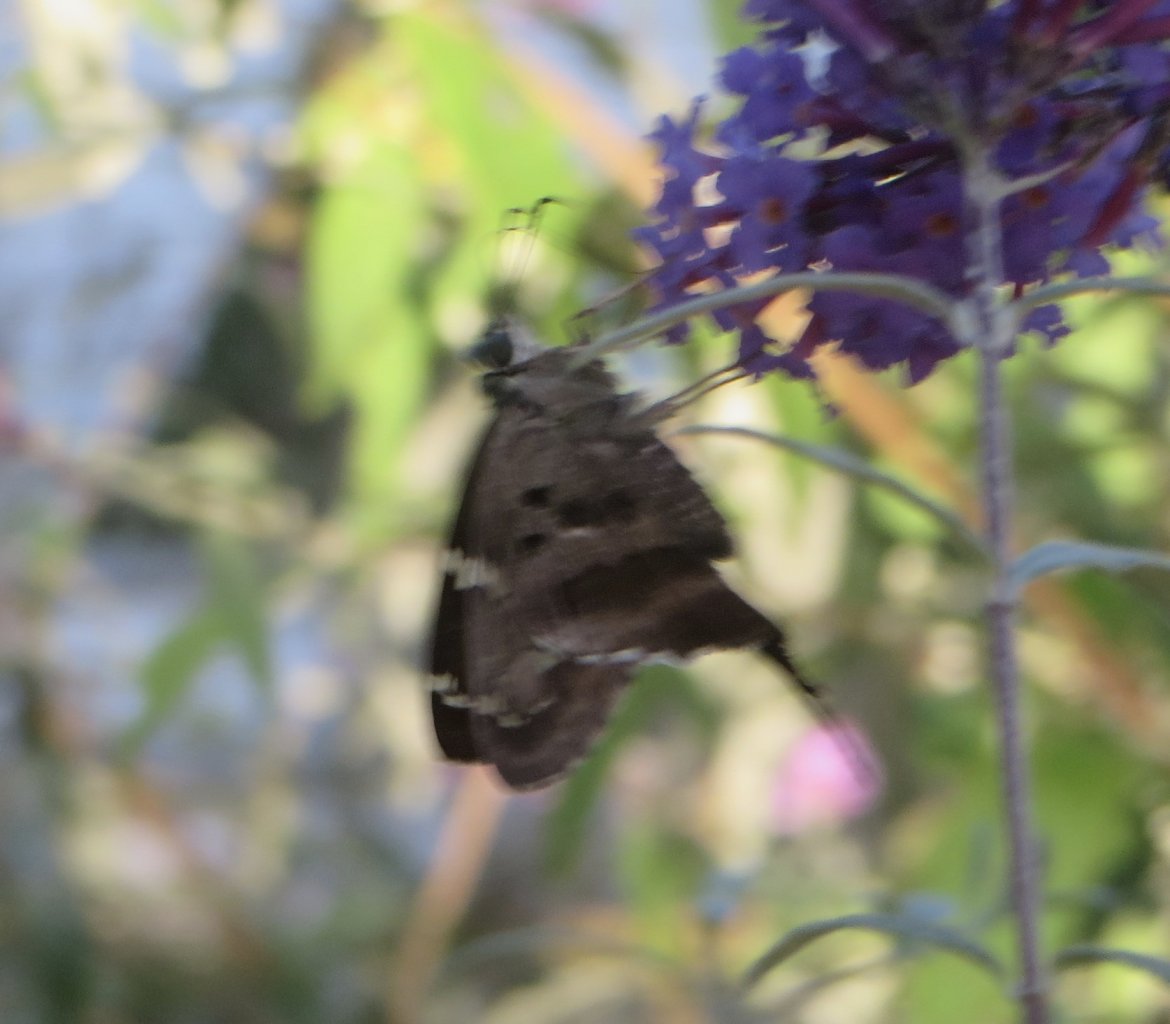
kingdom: Animalia
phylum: Arthropoda
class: Insecta
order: Lepidoptera
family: Hesperiidae
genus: Urbanus
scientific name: Urbanus proteus
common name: Long-tailed Skipper
